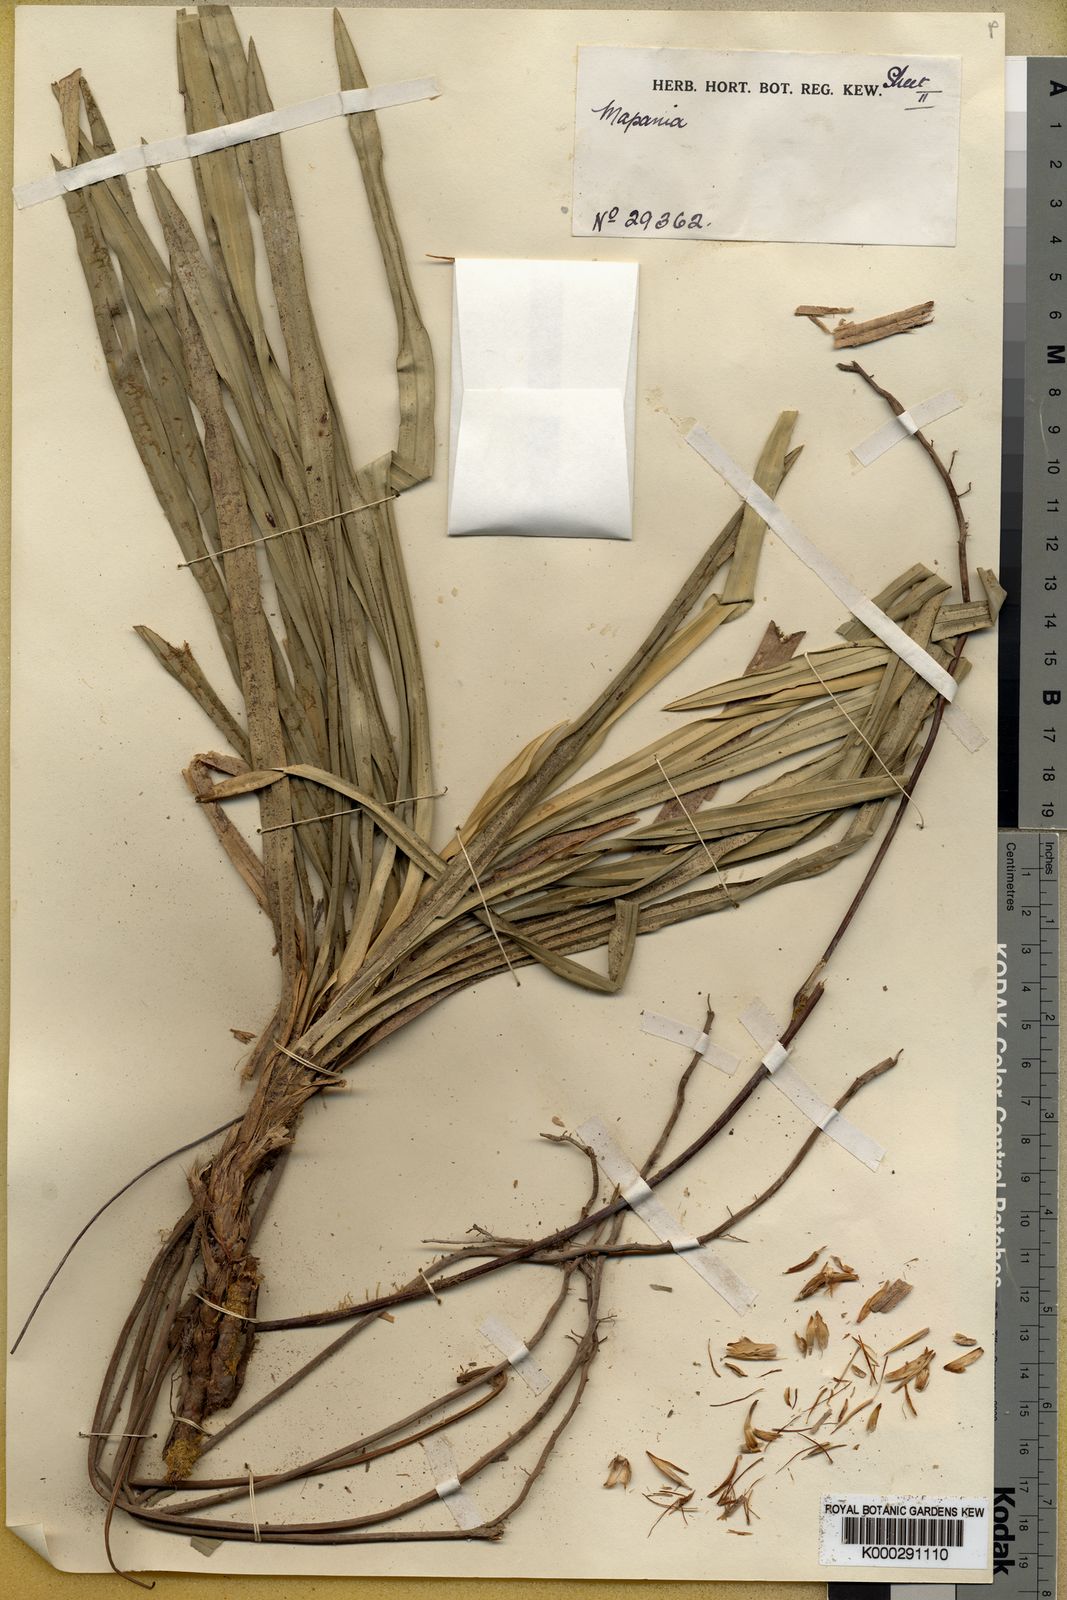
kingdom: Plantae
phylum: Tracheophyta
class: Liliopsida
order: Poales
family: Cyperaceae
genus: Mapania
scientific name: Mapania micropandanus
